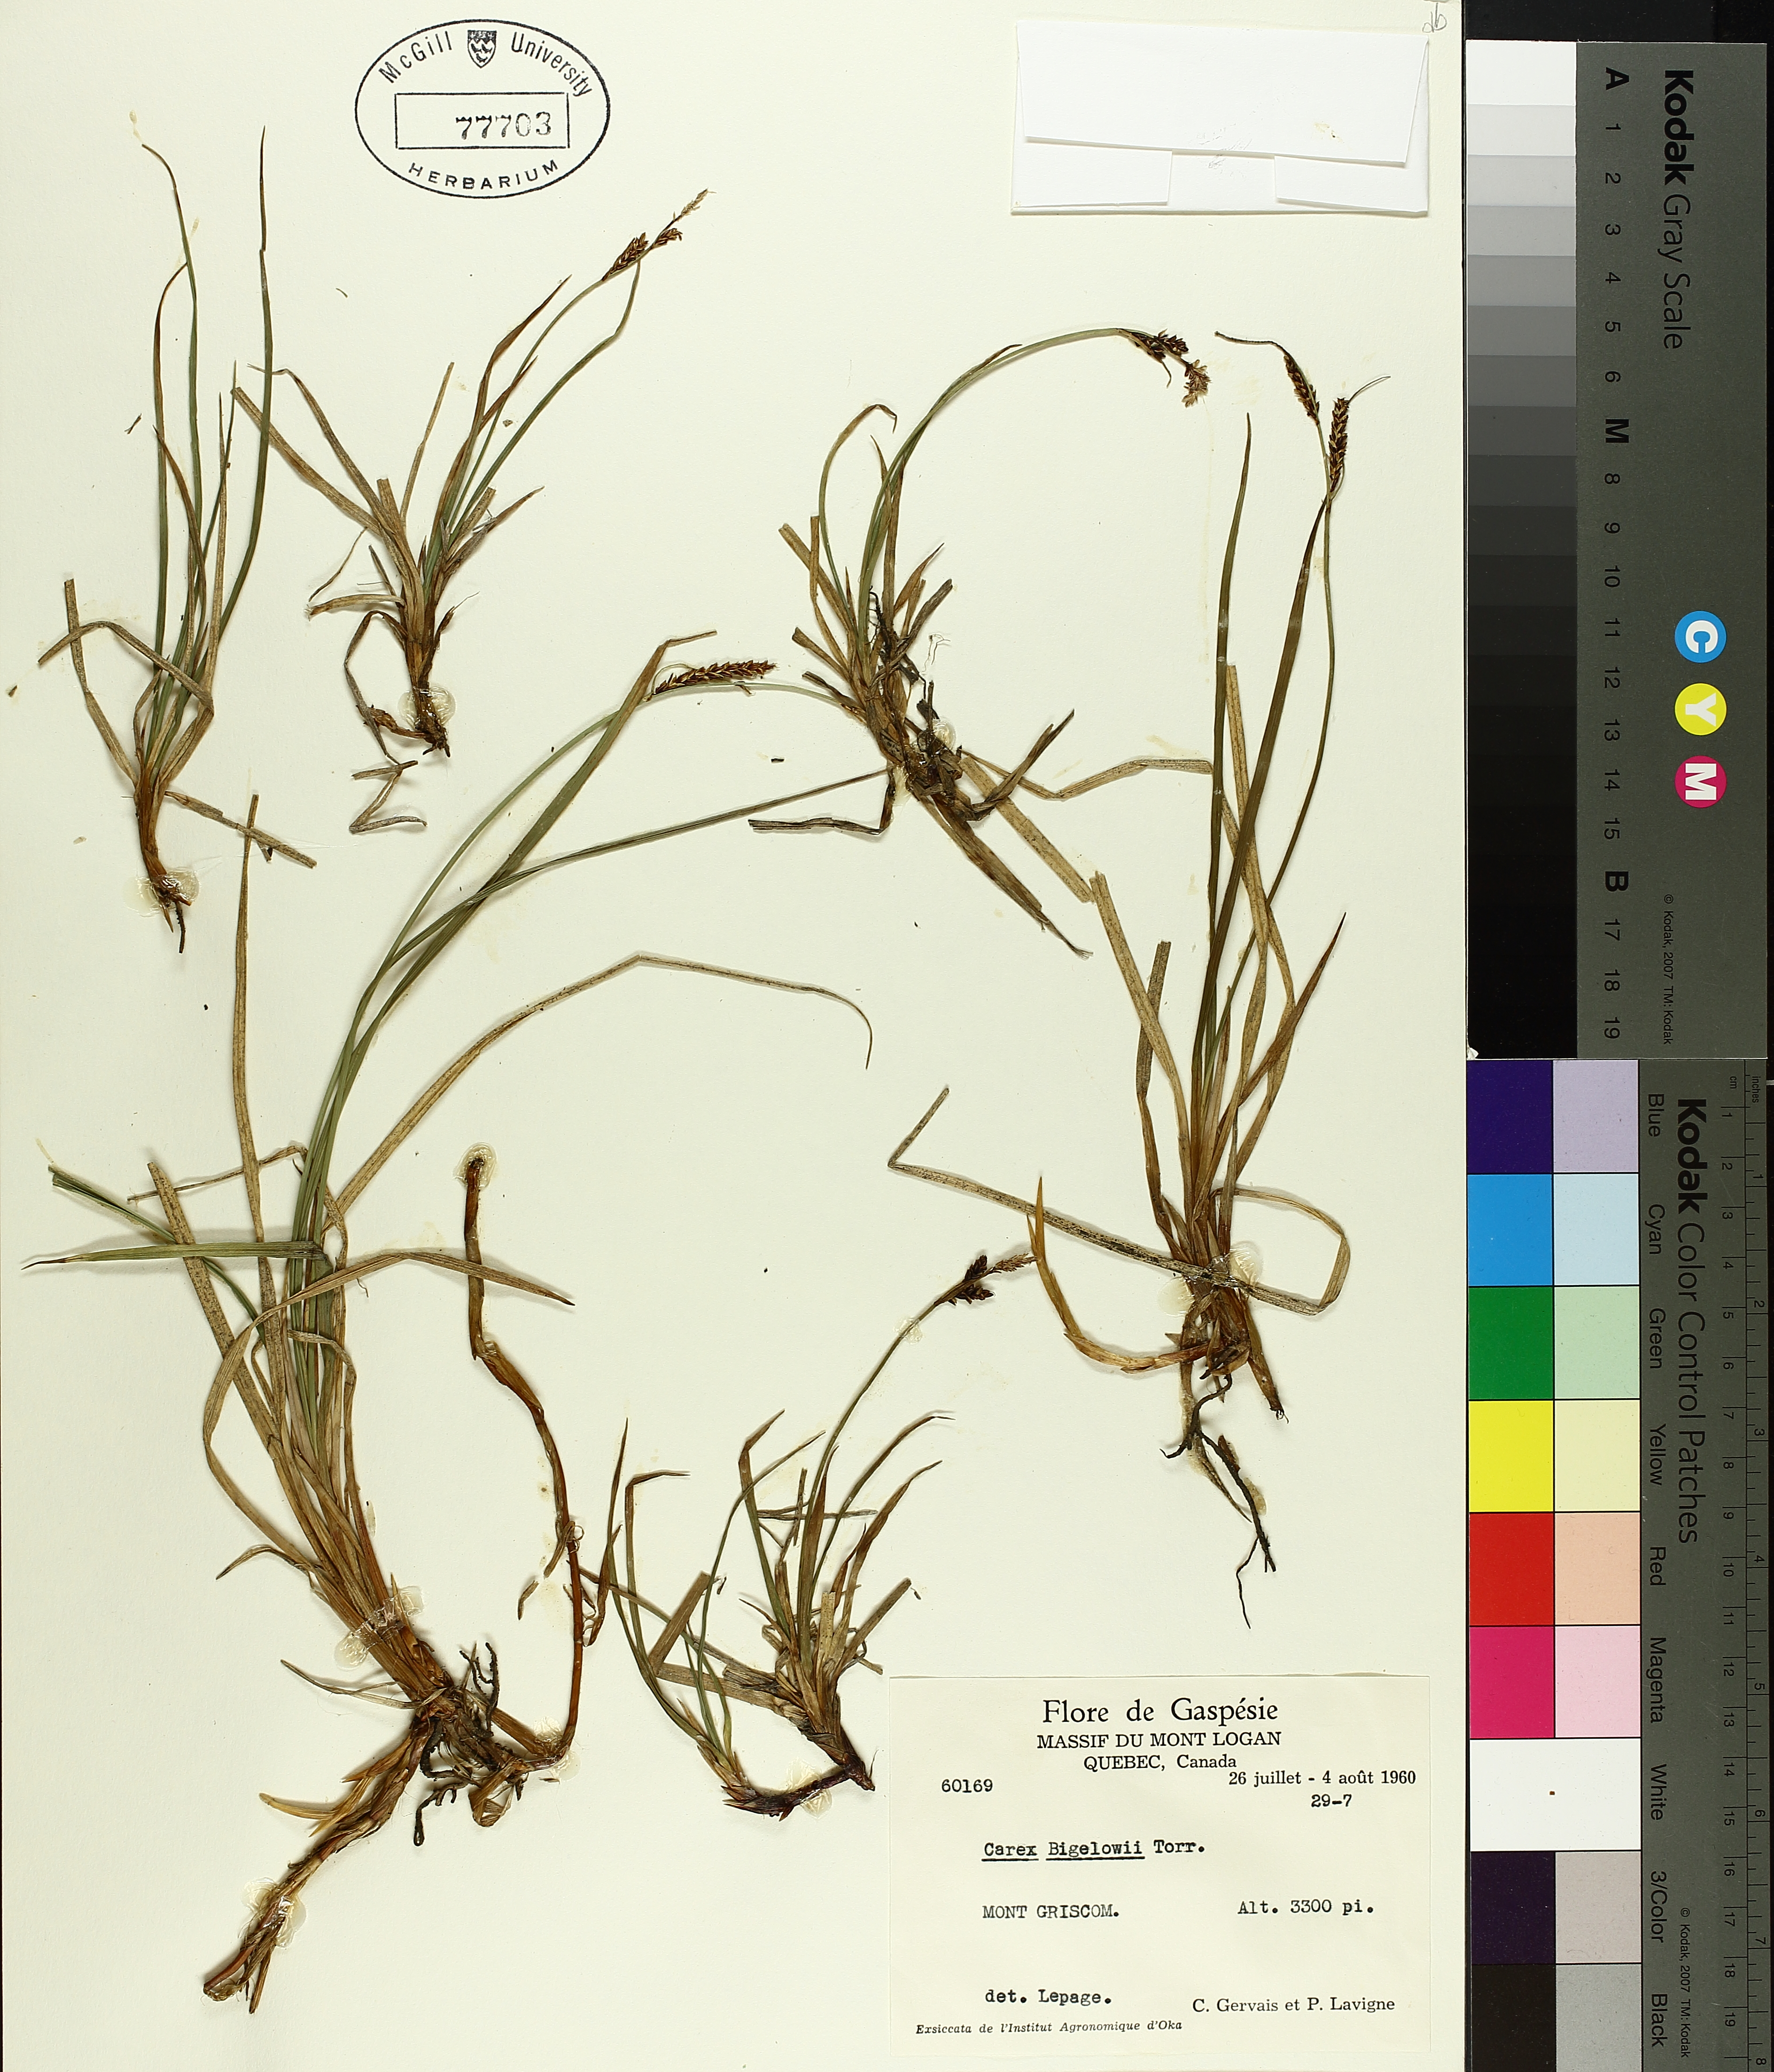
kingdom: Plantae
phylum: Tracheophyta
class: Liliopsida
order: Poales
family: Cyperaceae
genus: Carex
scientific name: Carex bigelowii
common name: Stiff sedge
